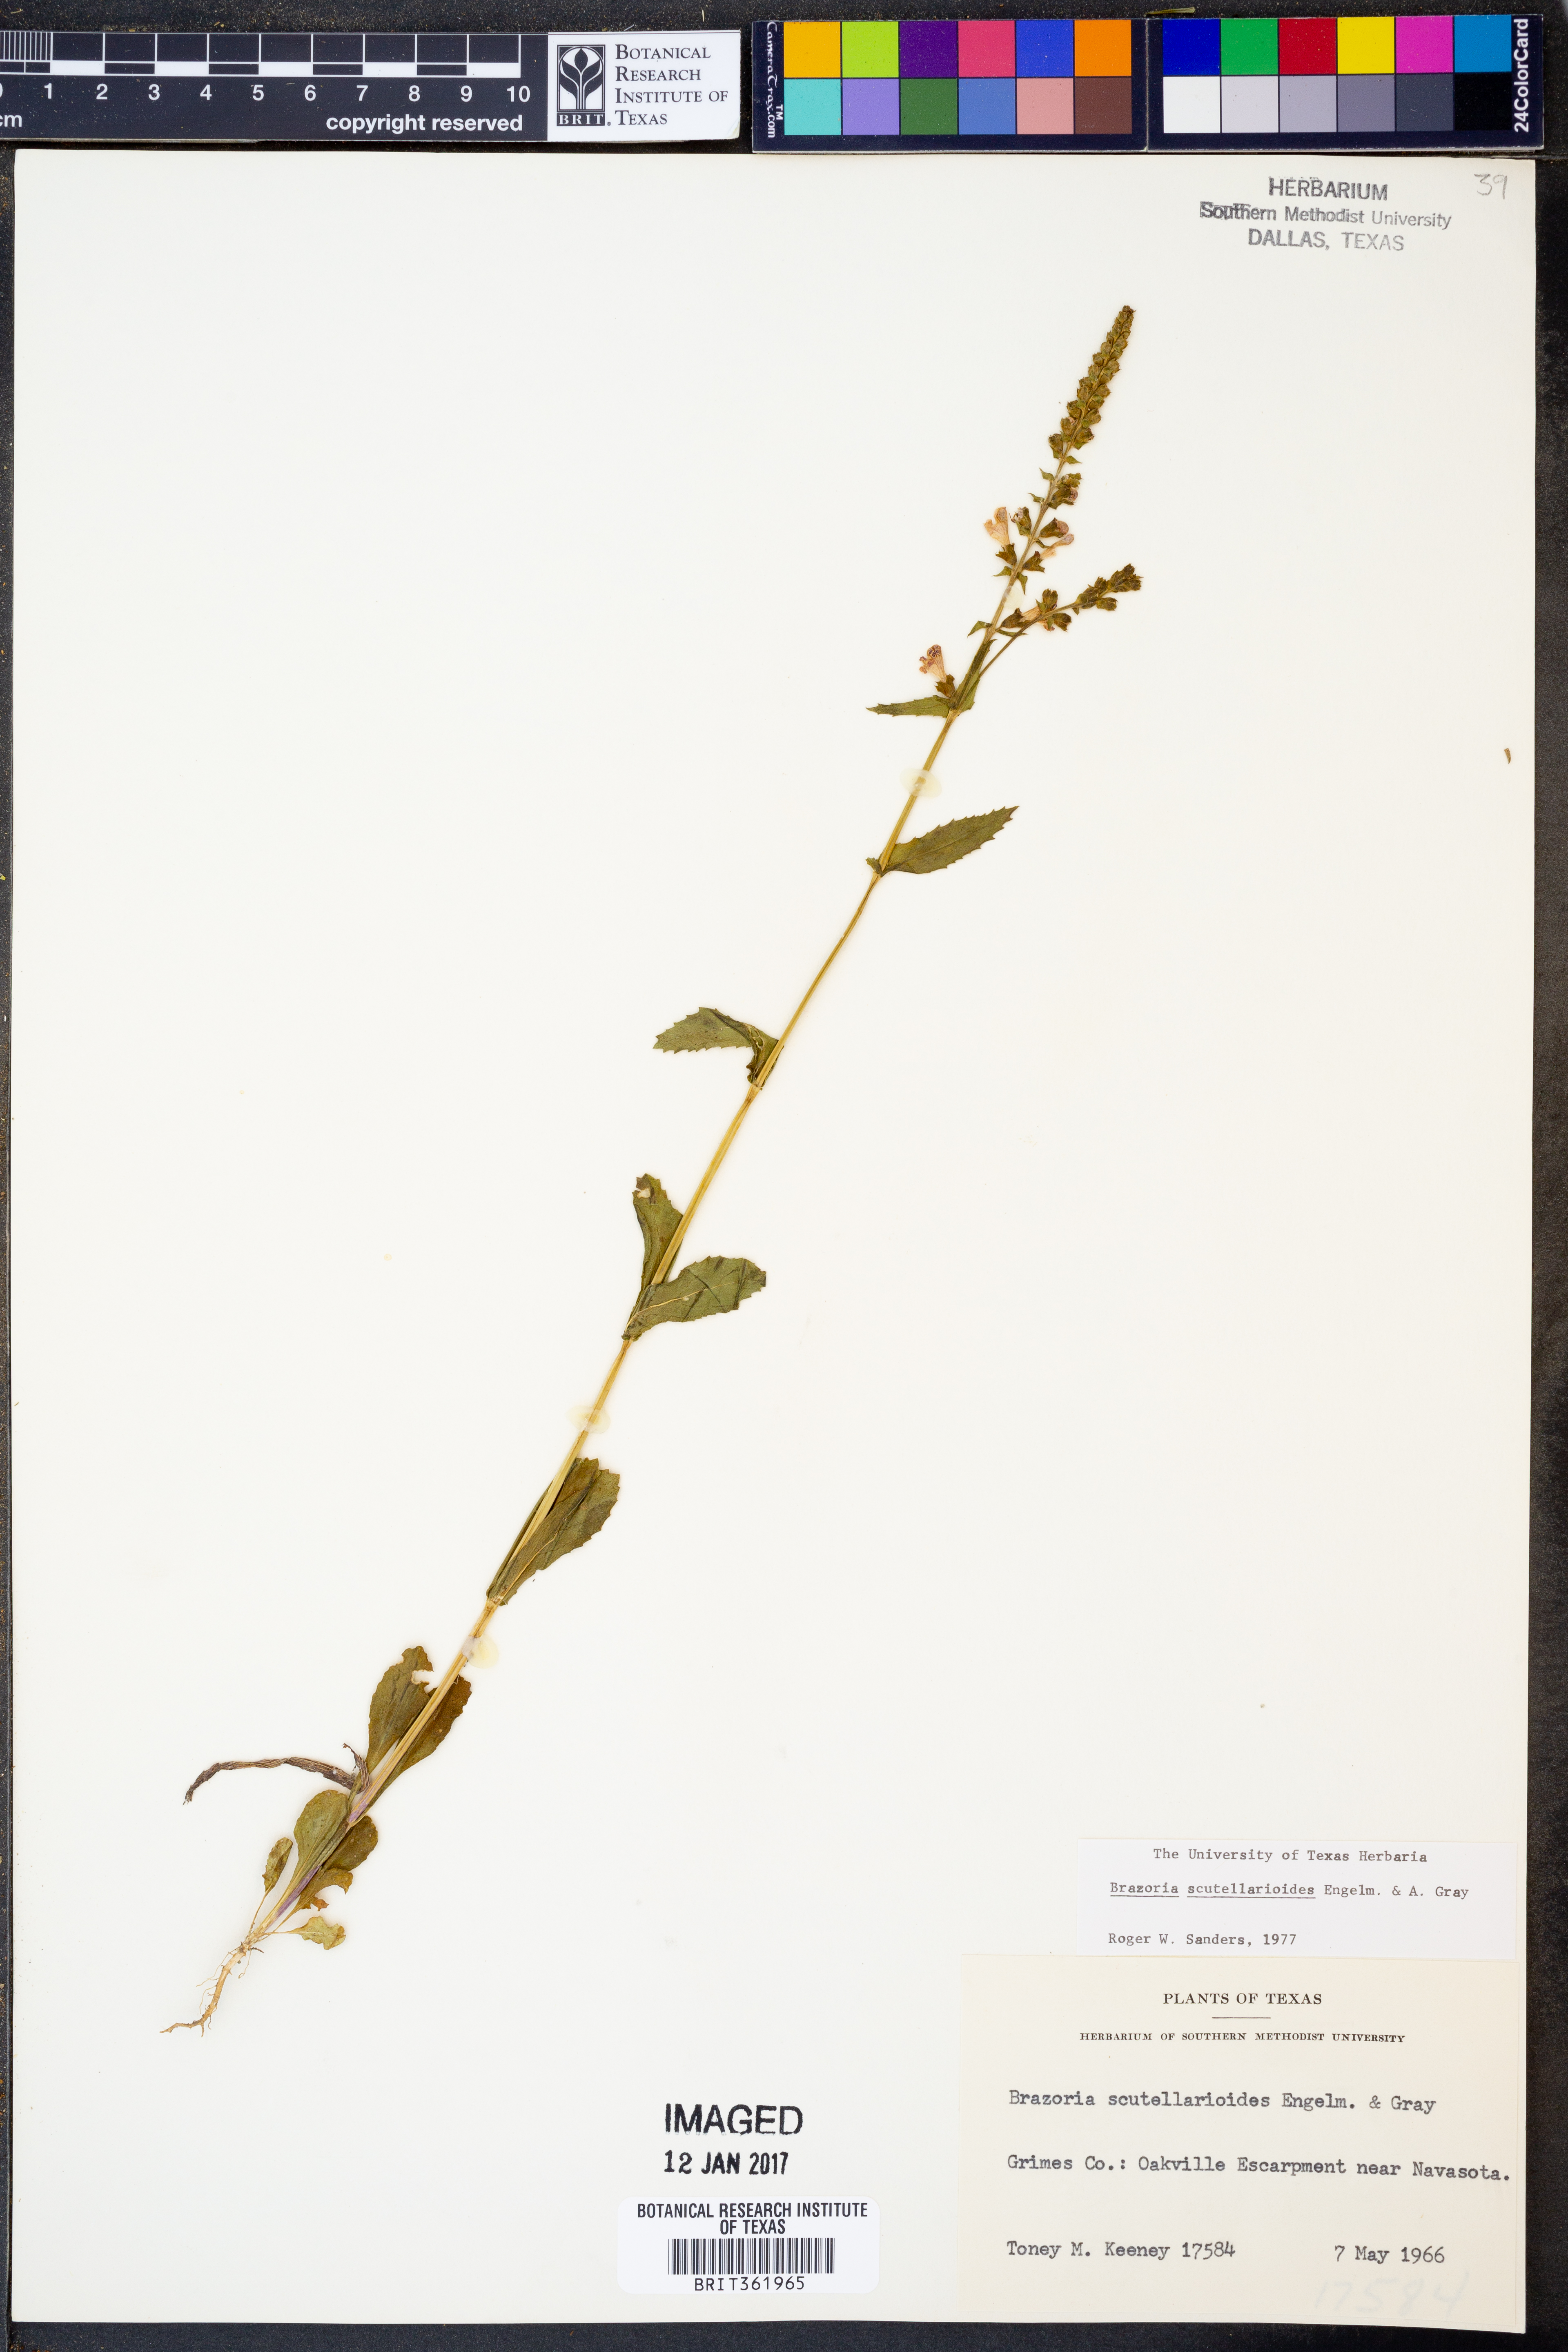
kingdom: Plantae
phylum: Tracheophyta
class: Magnoliopsida
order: Lamiales
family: Lamiaceae
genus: Warnockia
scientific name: Warnockia scutellarioides
